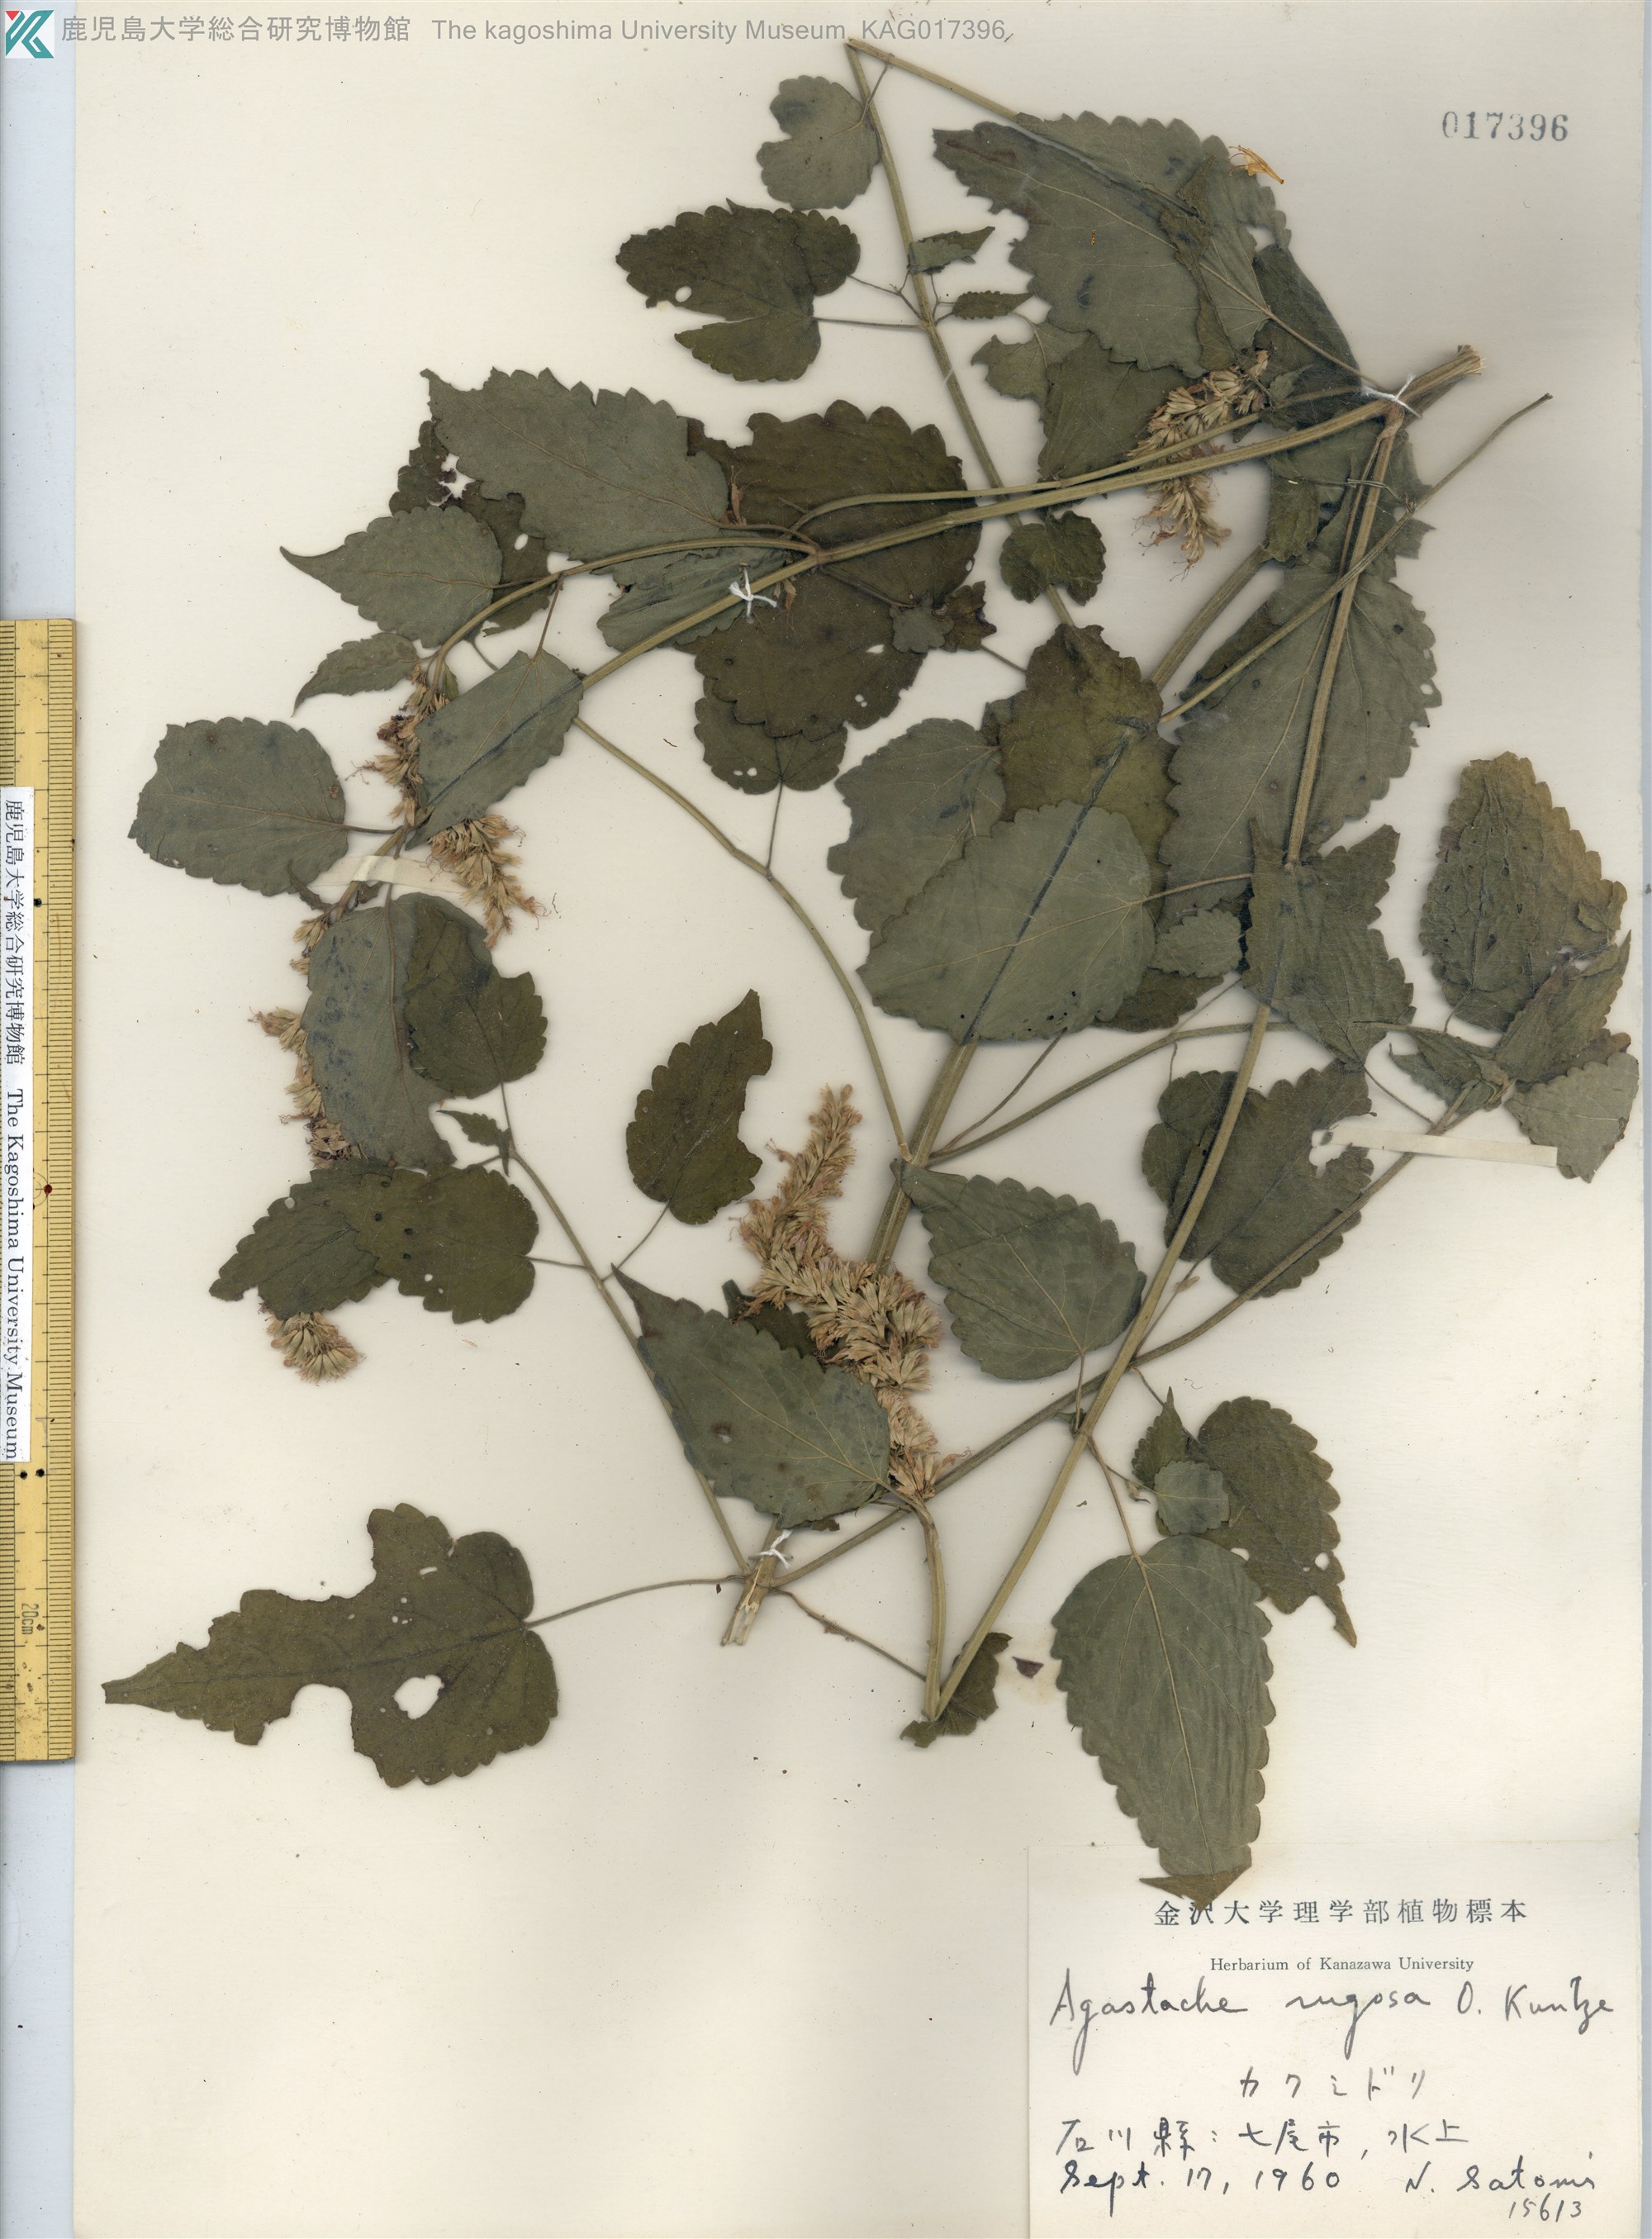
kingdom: Plantae
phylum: Tracheophyta
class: Magnoliopsida
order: Lamiales
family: Lamiaceae
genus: Agastache
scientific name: Agastache rugosa
